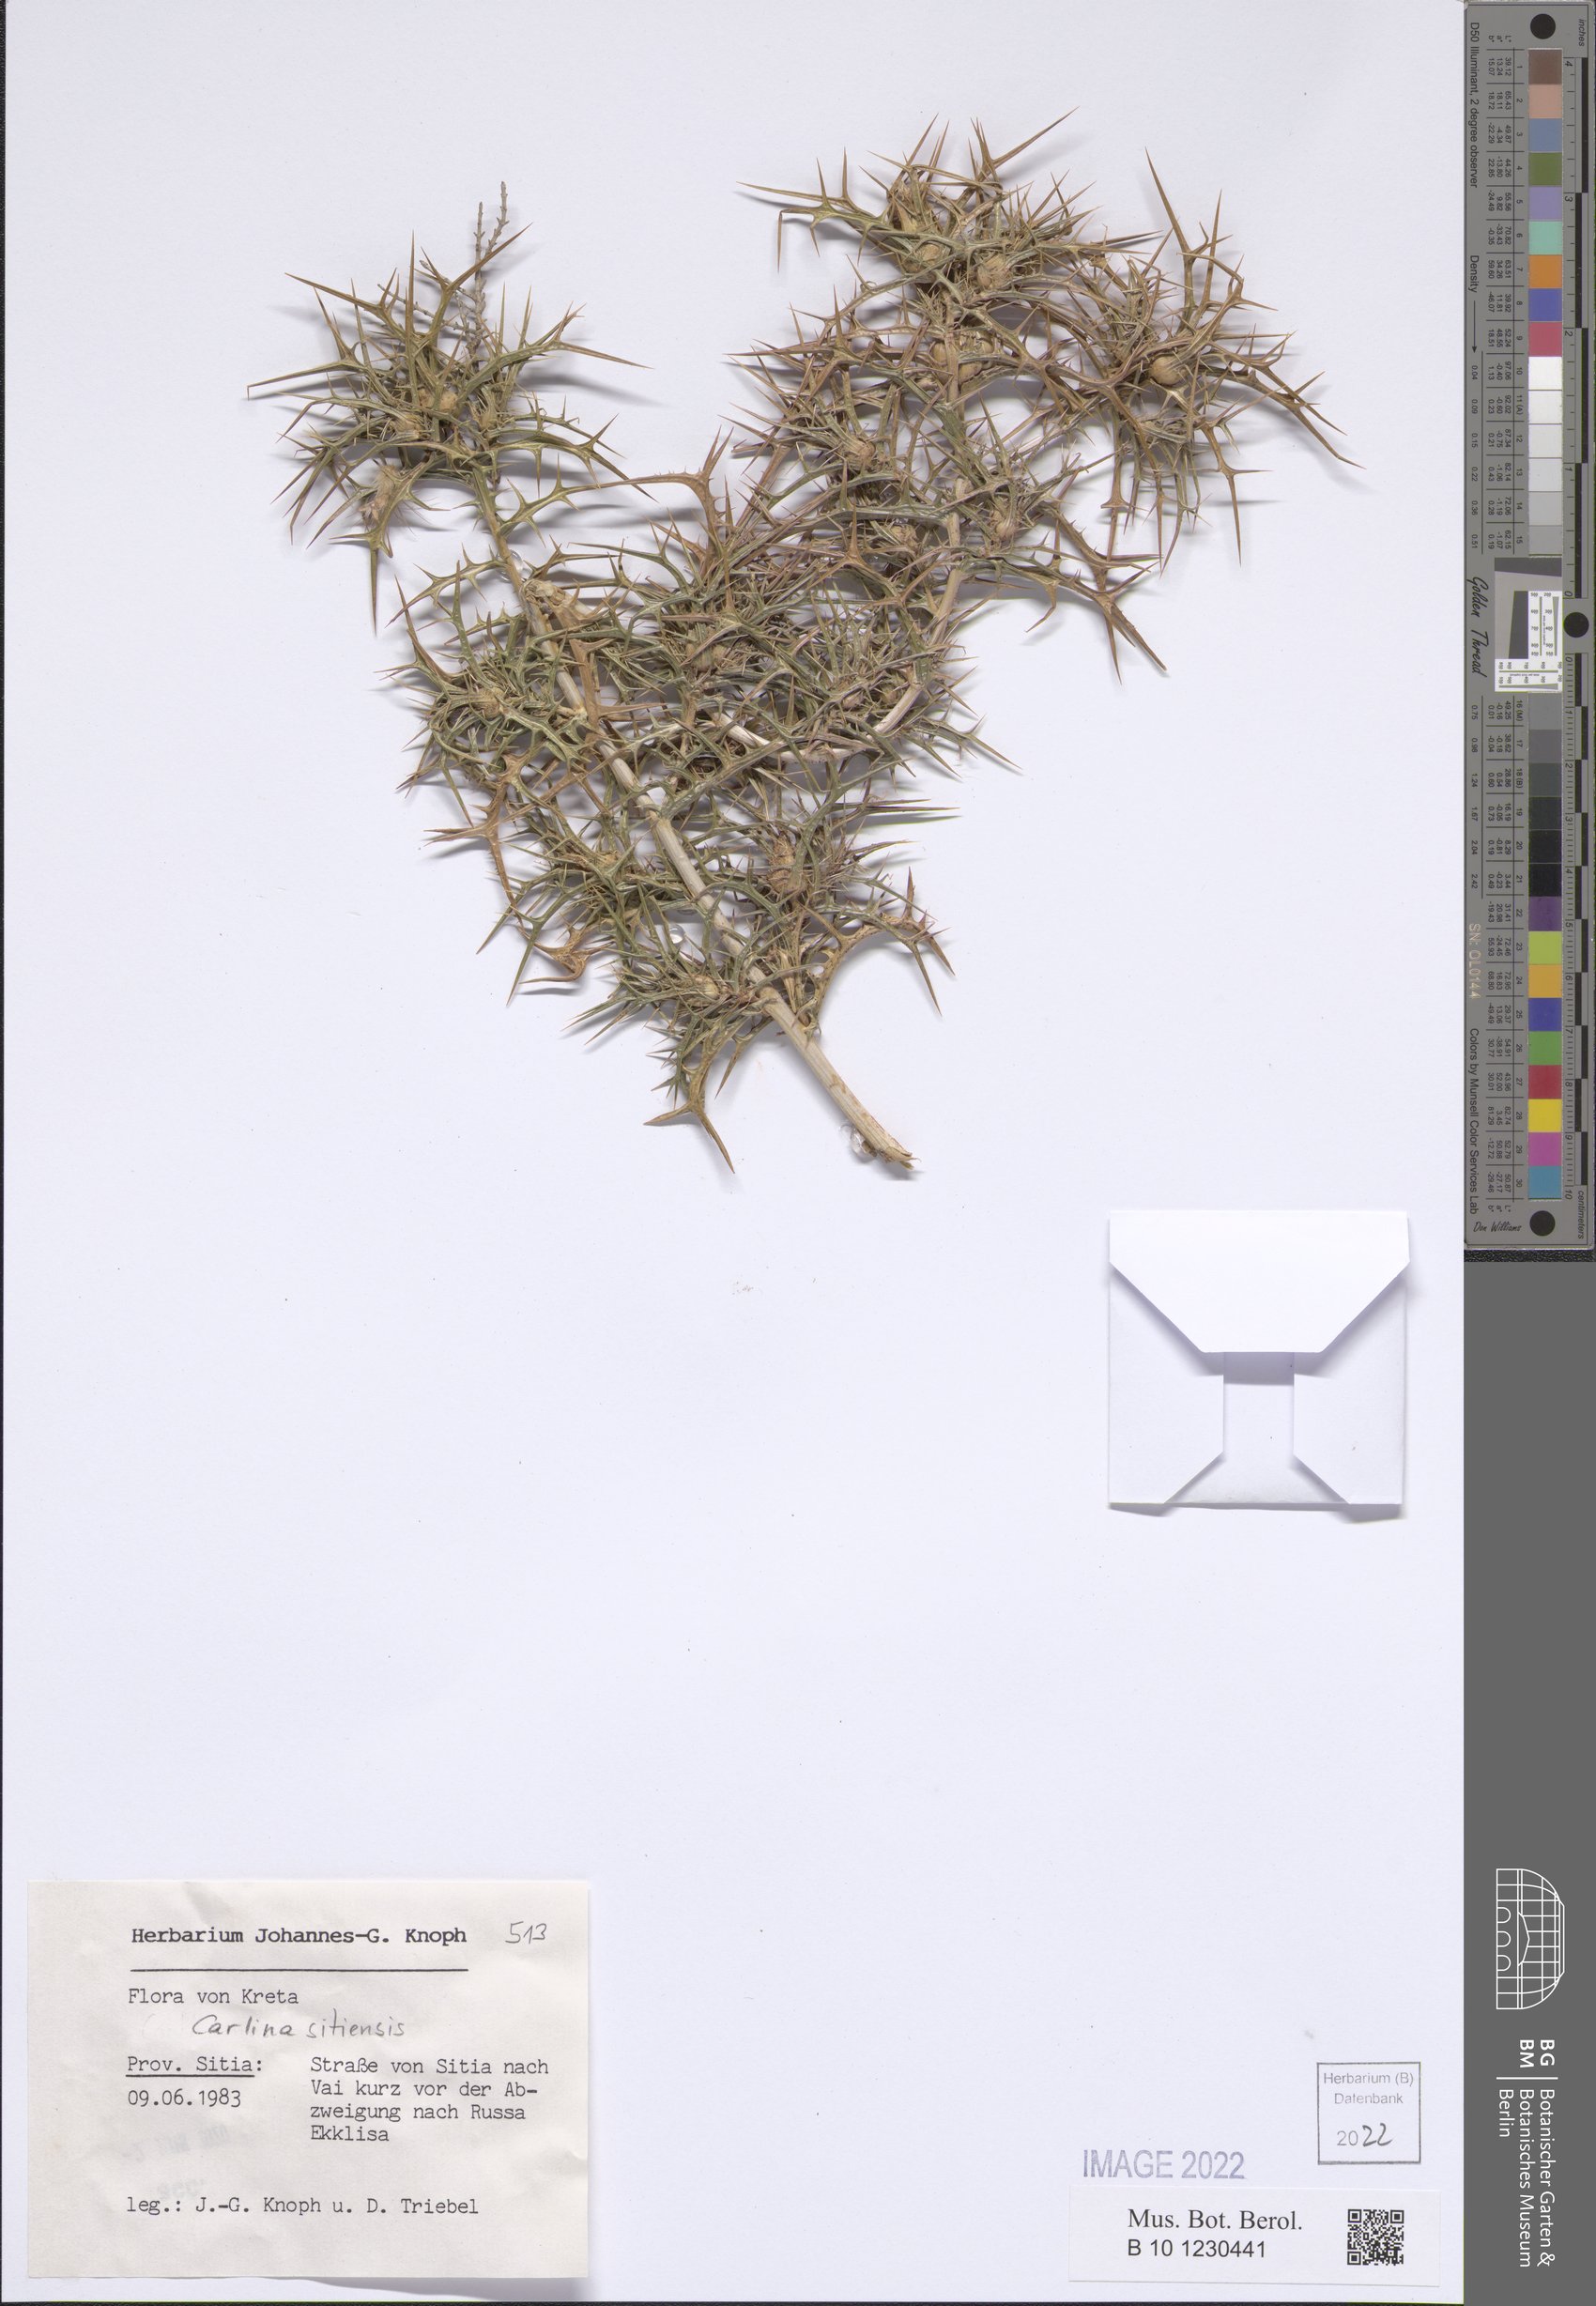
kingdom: Plantae
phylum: Tracheophyta
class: Magnoliopsida
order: Asterales
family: Asteraceae
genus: Carlina
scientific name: Carlina sitiensis
